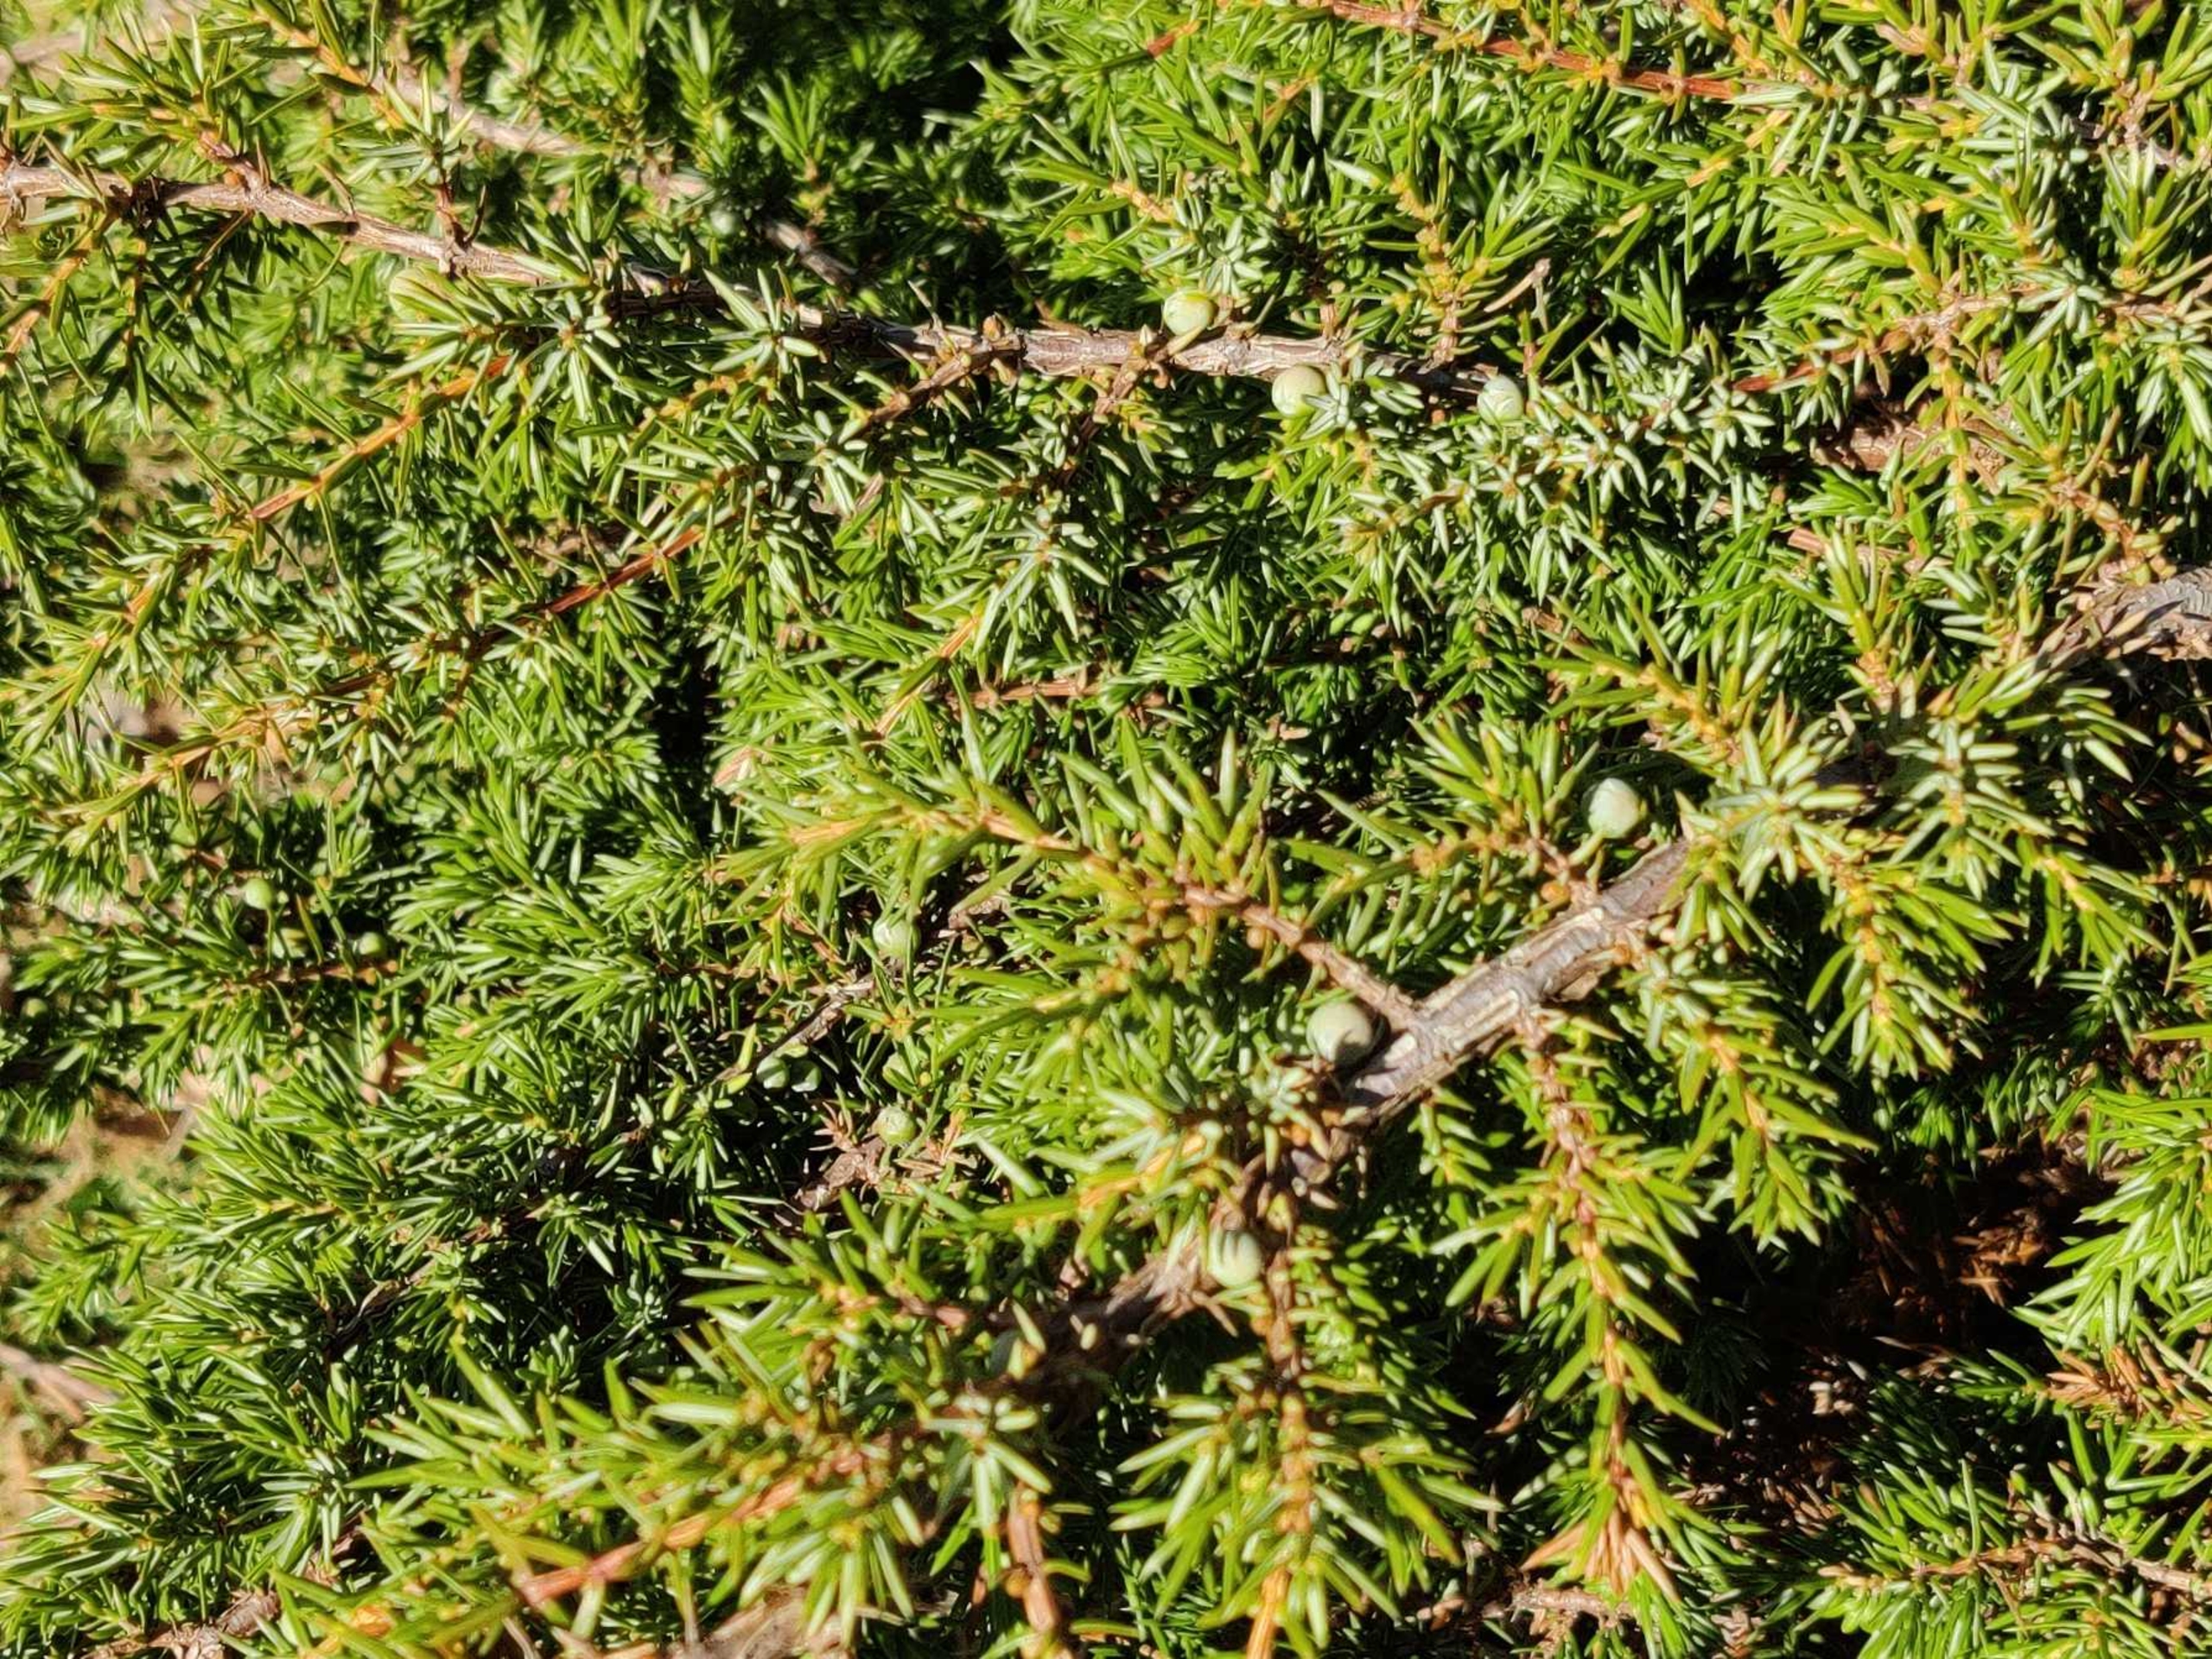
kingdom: Plantae
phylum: Tracheophyta
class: Pinopsida
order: Pinales
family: Cupressaceae
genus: Juniperus
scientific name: Juniperus communis
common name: Almindelig ene
